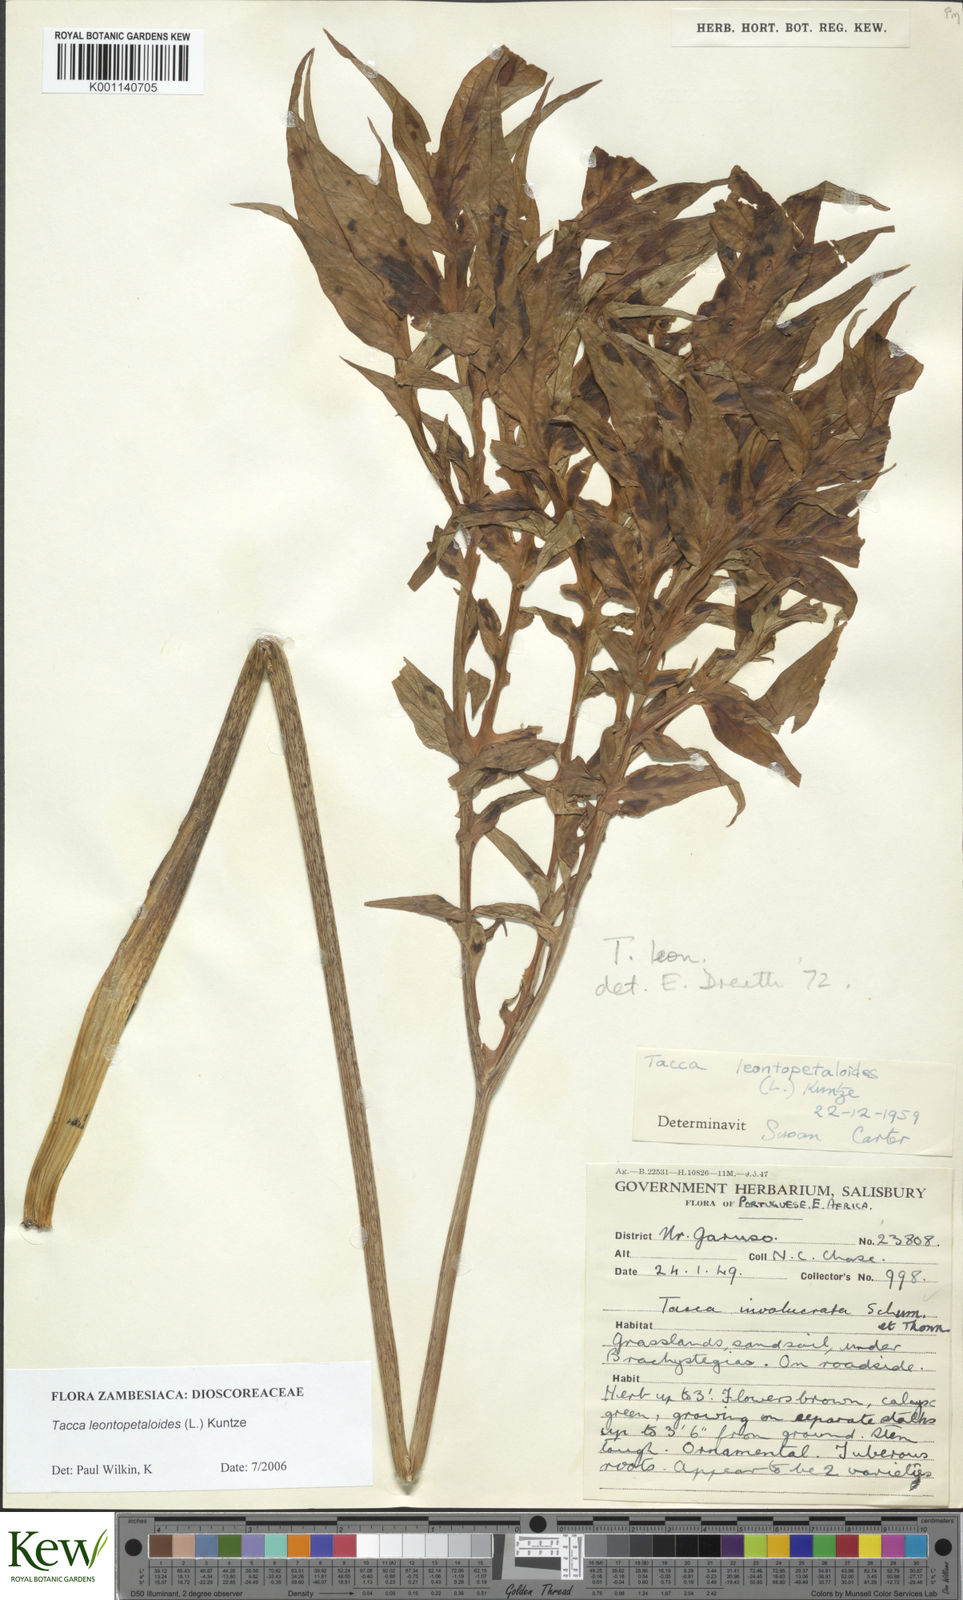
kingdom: Plantae
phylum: Tracheophyta
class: Liliopsida
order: Dioscoreales
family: Dioscoreaceae
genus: Tacca
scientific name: Tacca leontopetaloides
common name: Arrowroot
